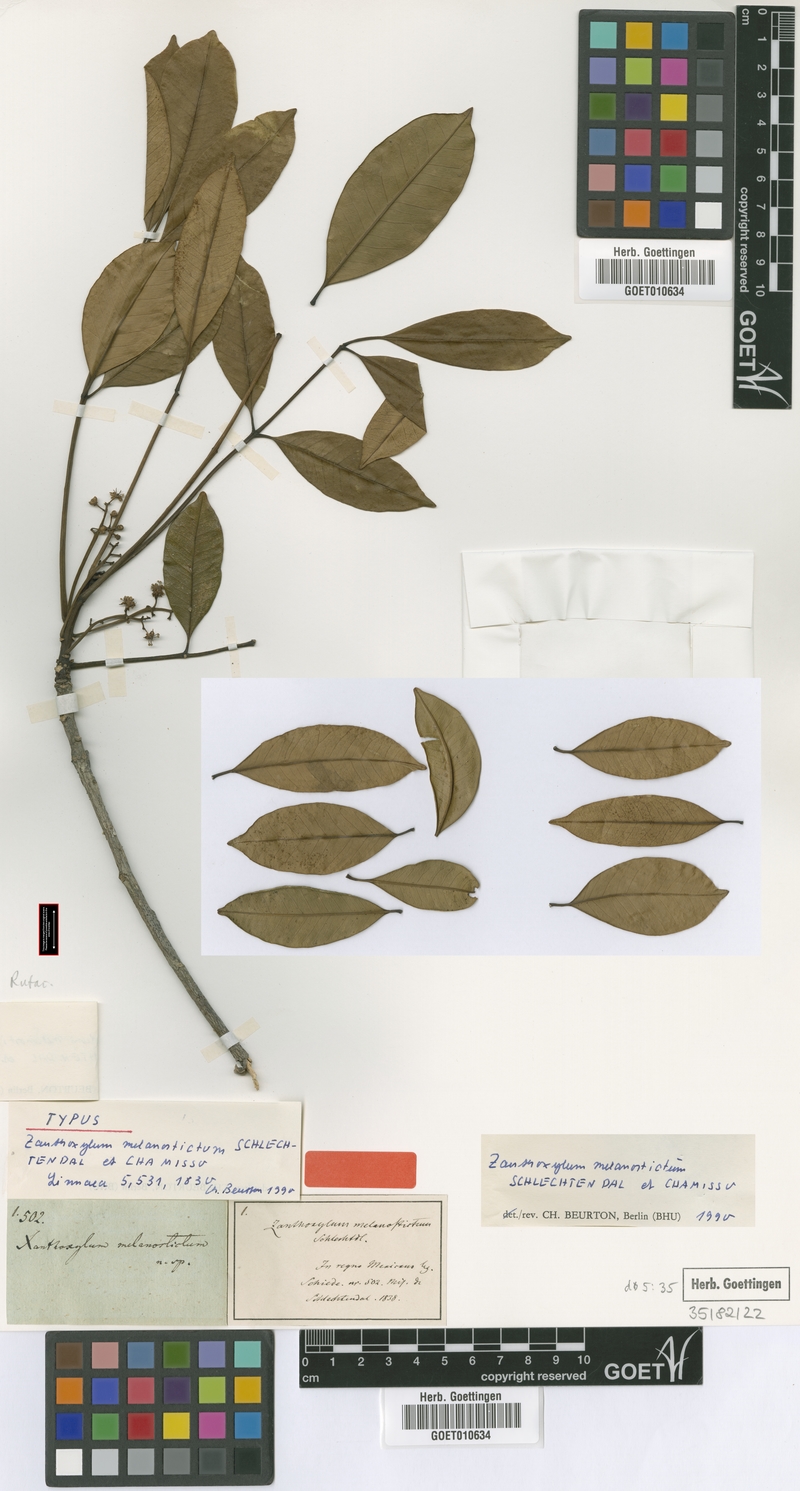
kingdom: Plantae
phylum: Tracheophyta
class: Magnoliopsida
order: Sapindales
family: Rutaceae
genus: Zanthoxylum
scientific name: Zanthoxylum melanostictum
